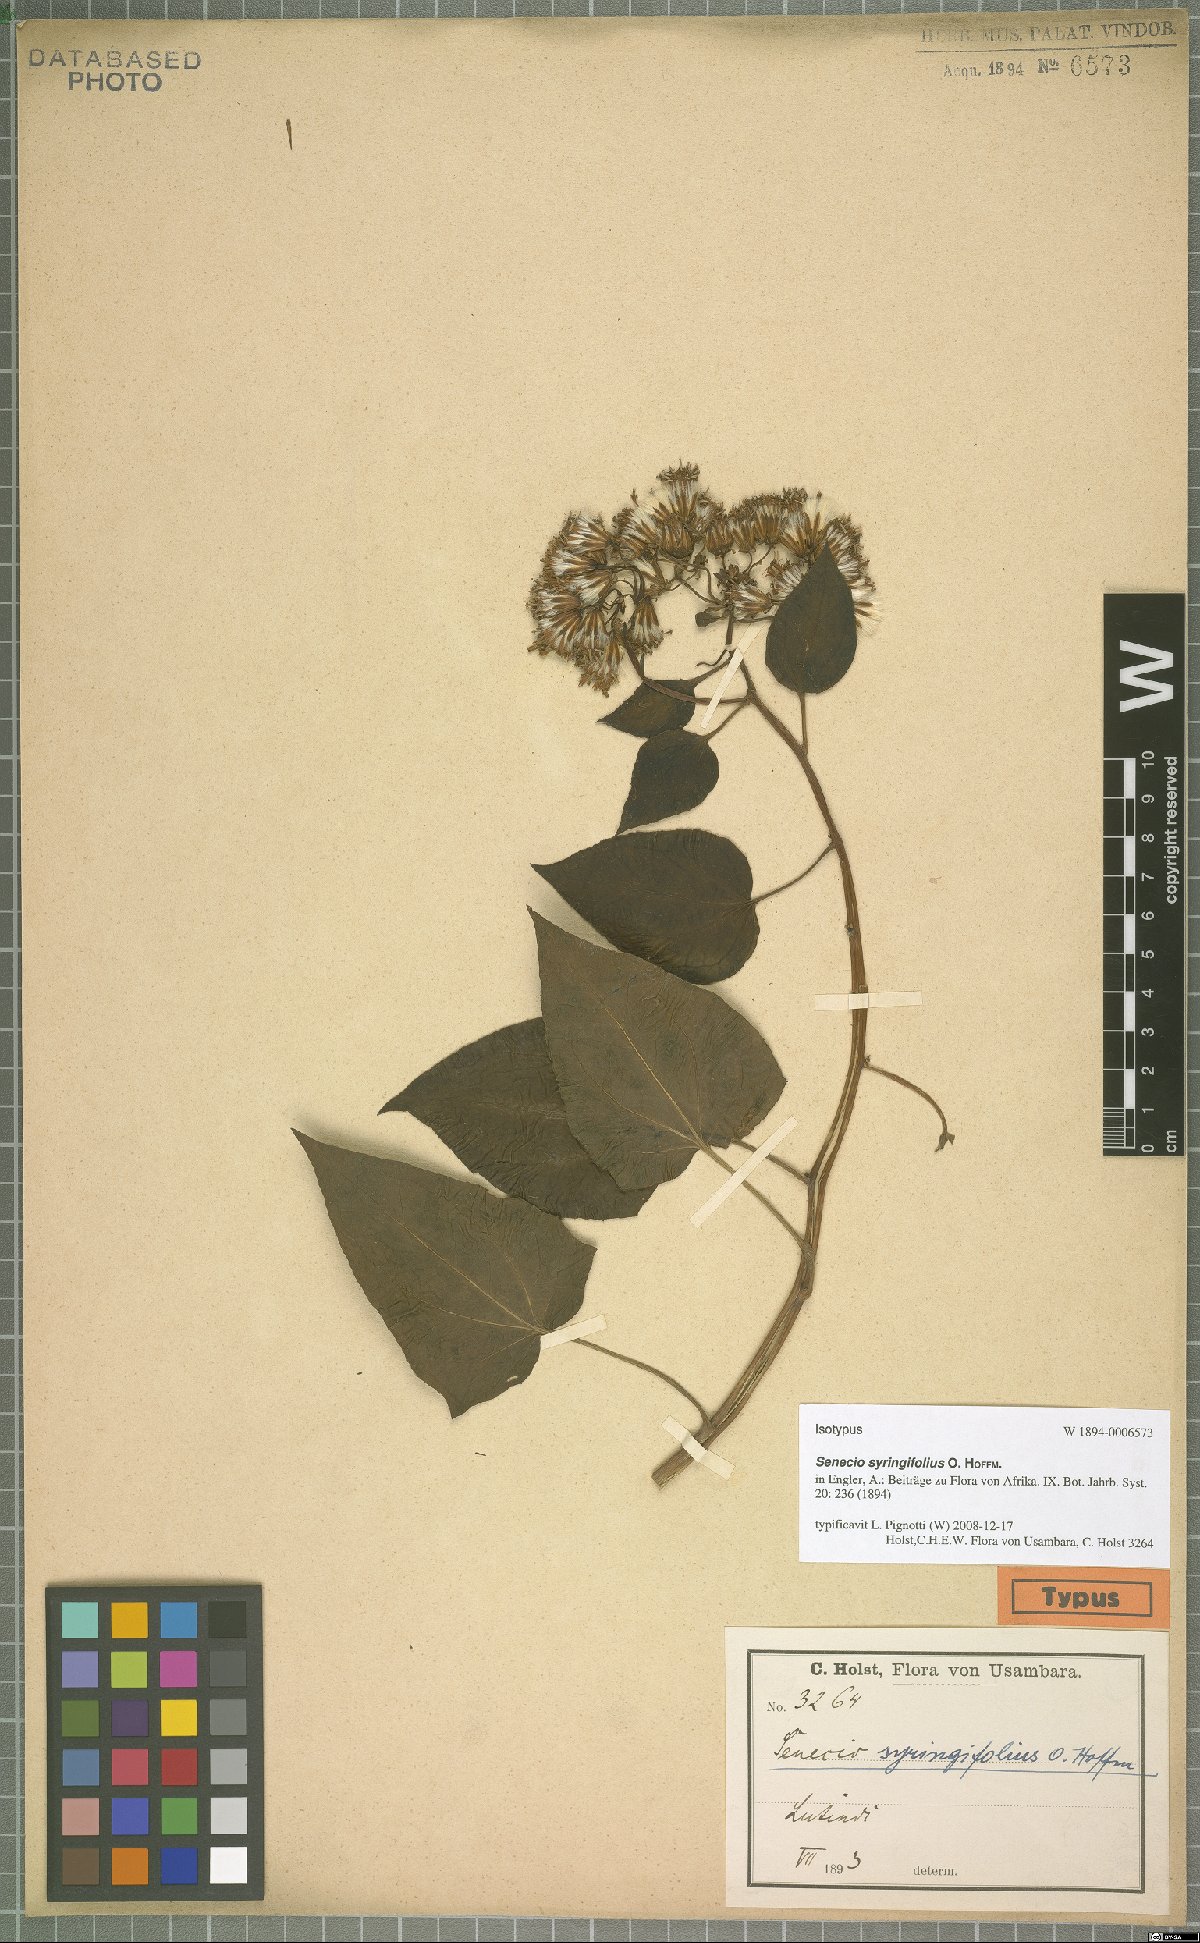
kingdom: Plantae
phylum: Tracheophyta
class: Magnoliopsida
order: Asterales
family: Asteraceae
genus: Senecio
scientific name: Senecio syringifolius
